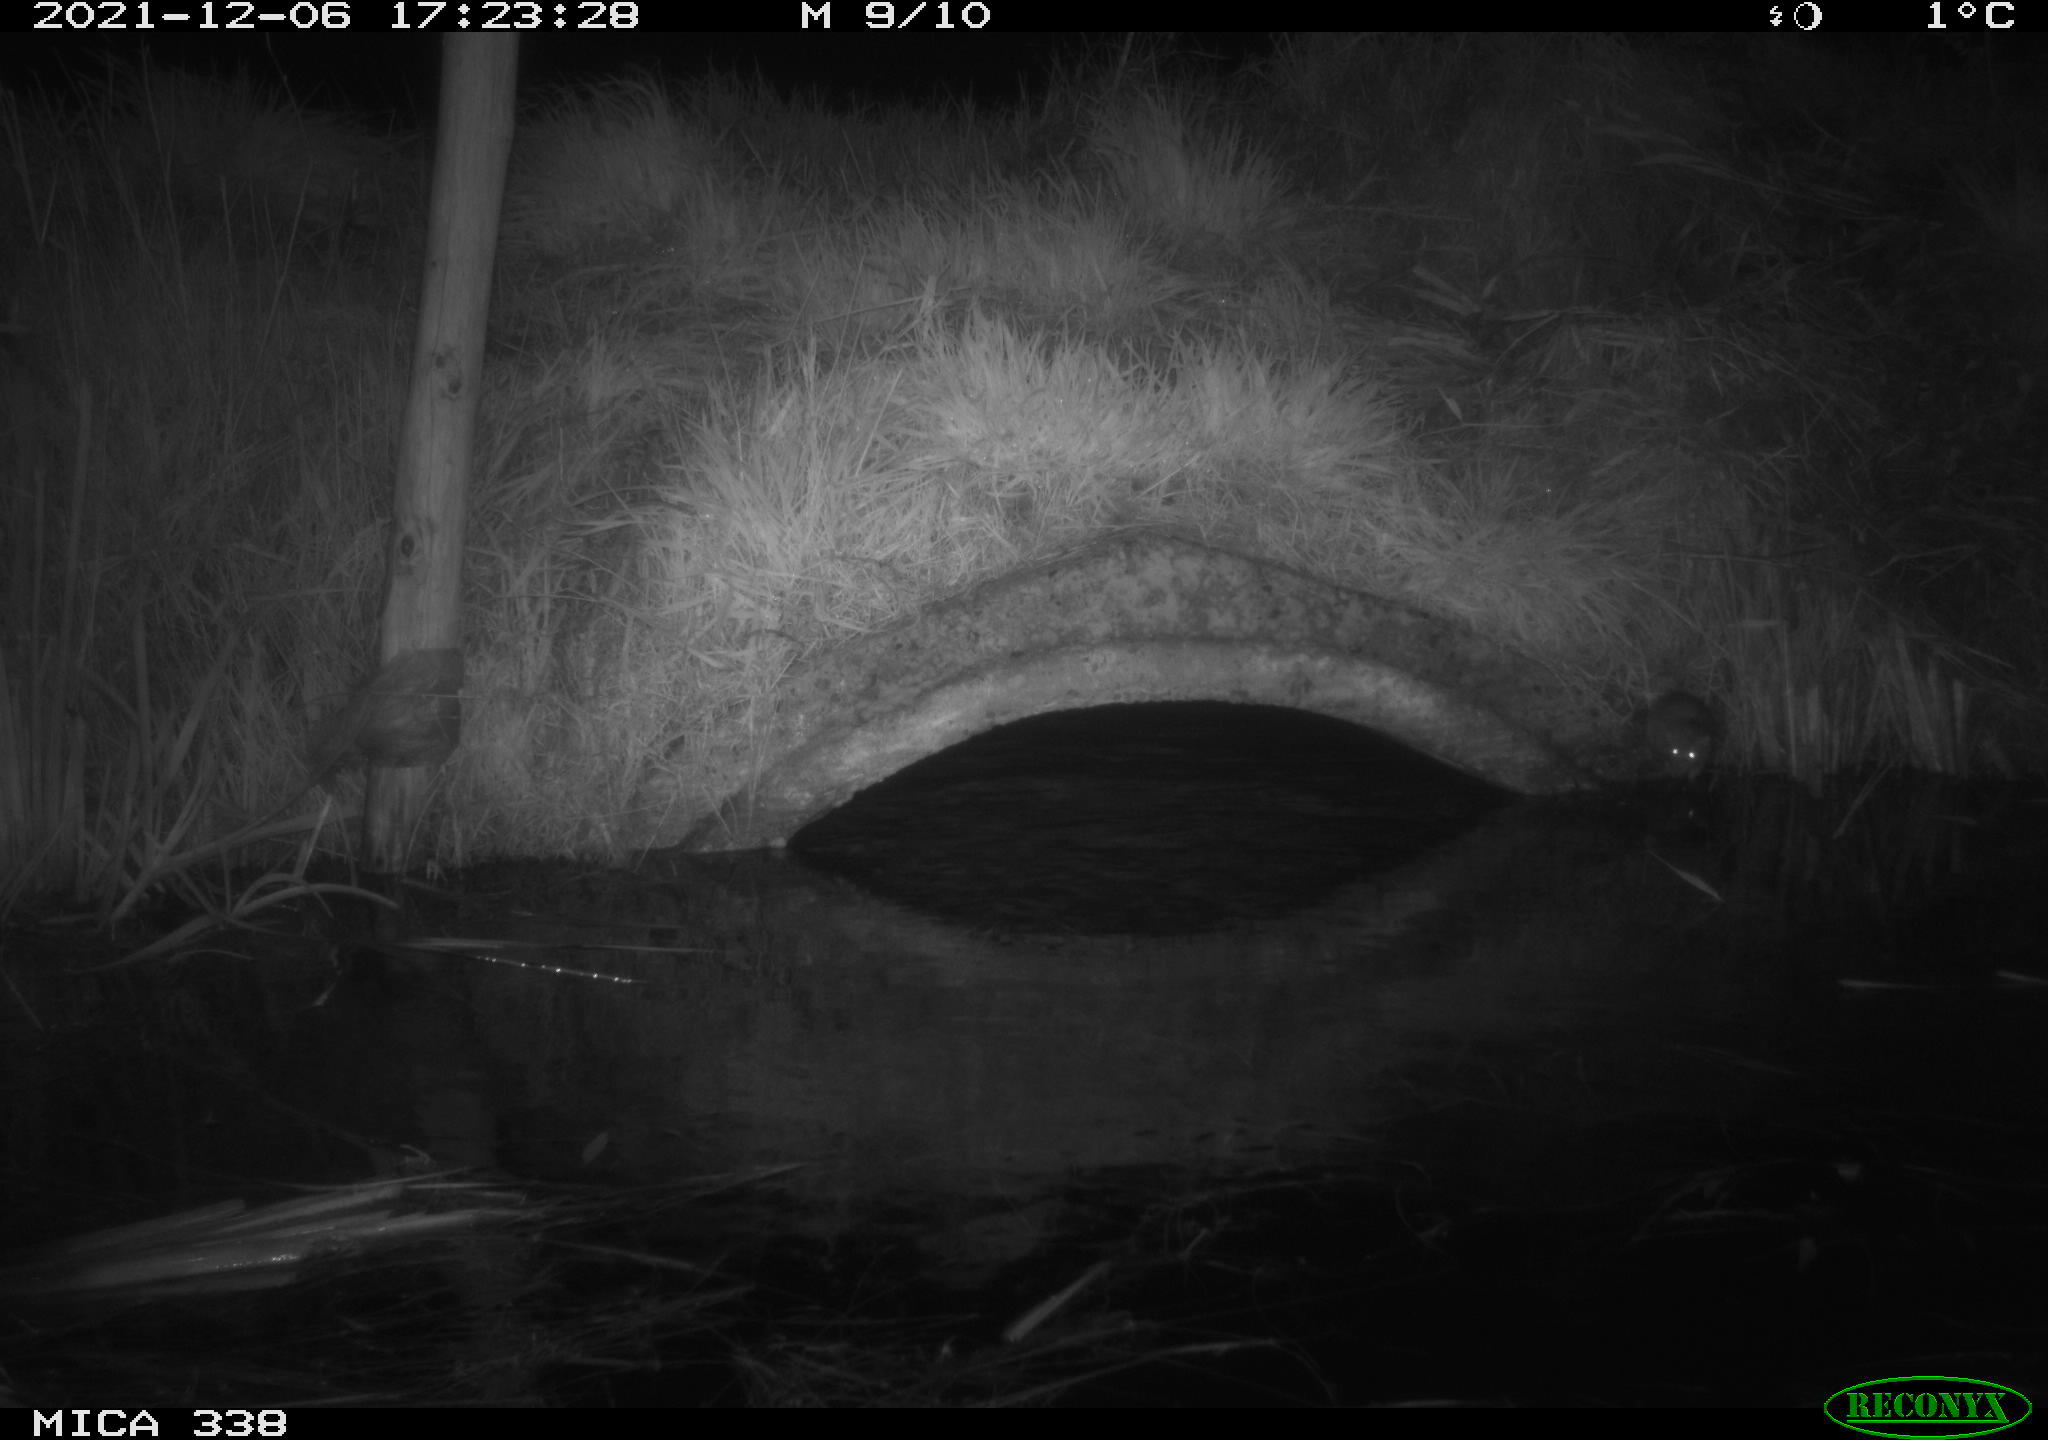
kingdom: Animalia
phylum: Chordata
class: Mammalia
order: Rodentia
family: Muridae
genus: Rattus
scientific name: Rattus norvegicus
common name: Brown rat
